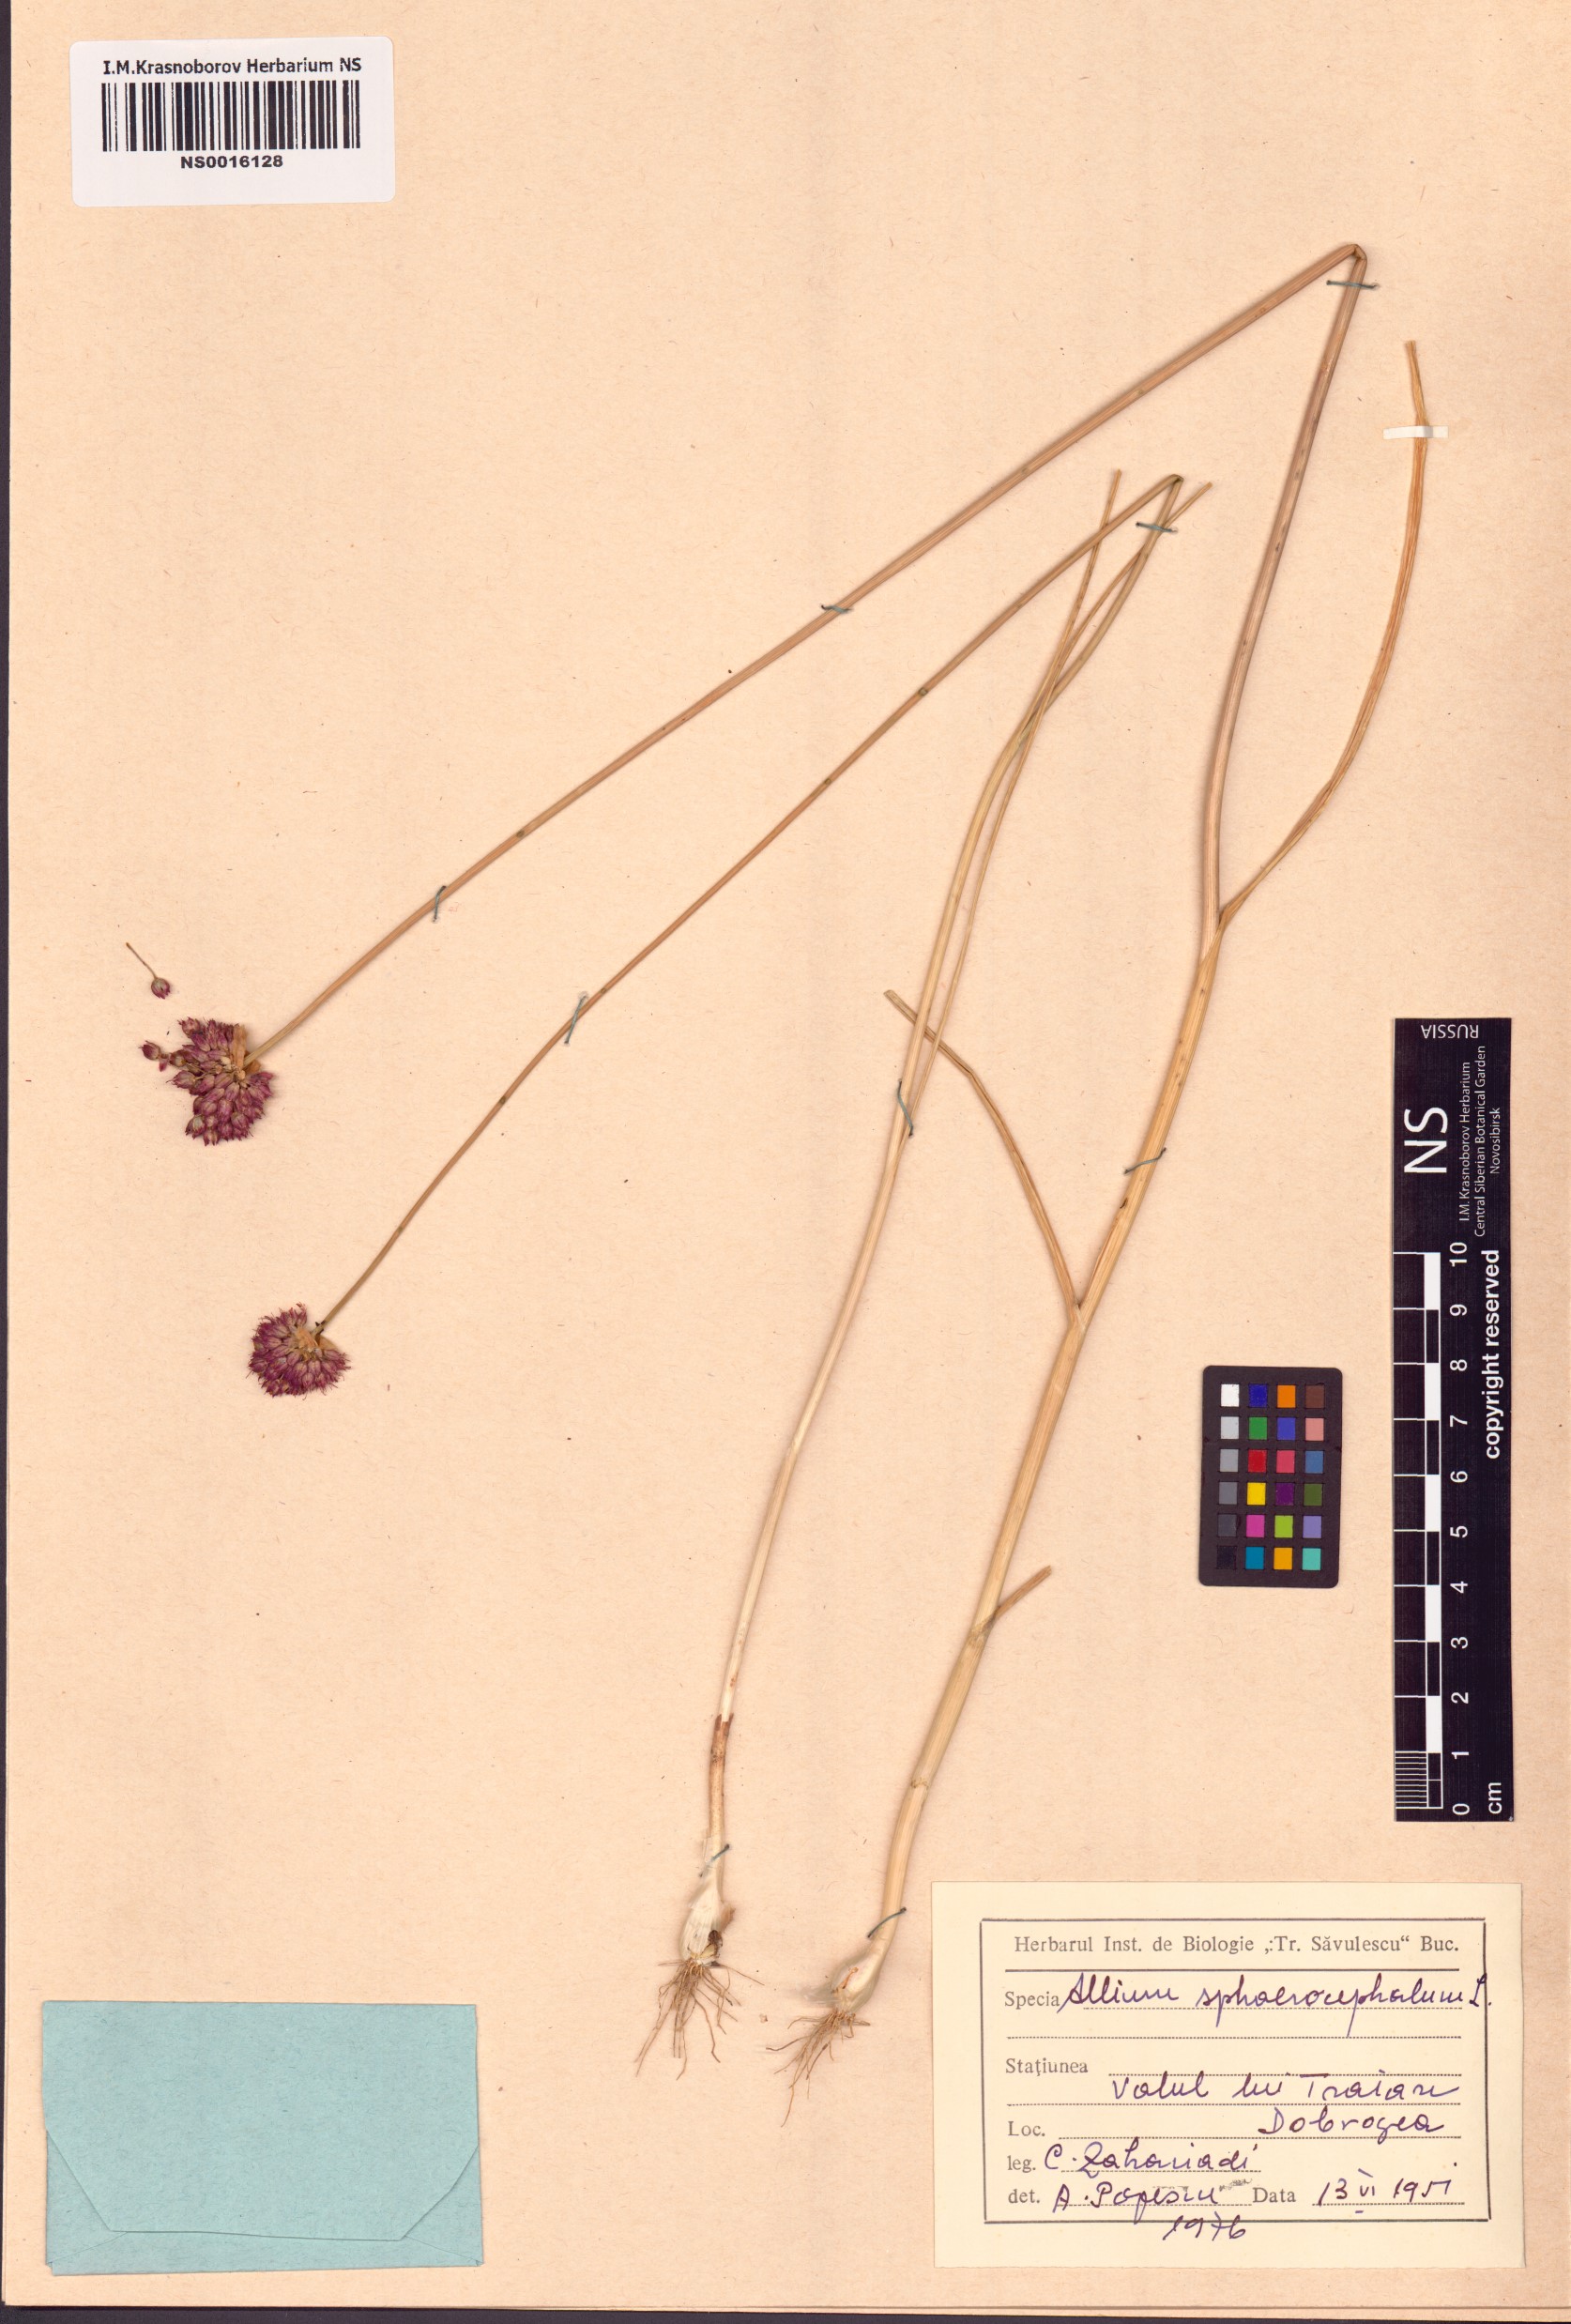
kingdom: Plantae
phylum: Tracheophyta
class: Liliopsida
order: Asparagales
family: Amaryllidaceae
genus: Allium
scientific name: Allium sphaerocephalon
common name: Round-headed leek
